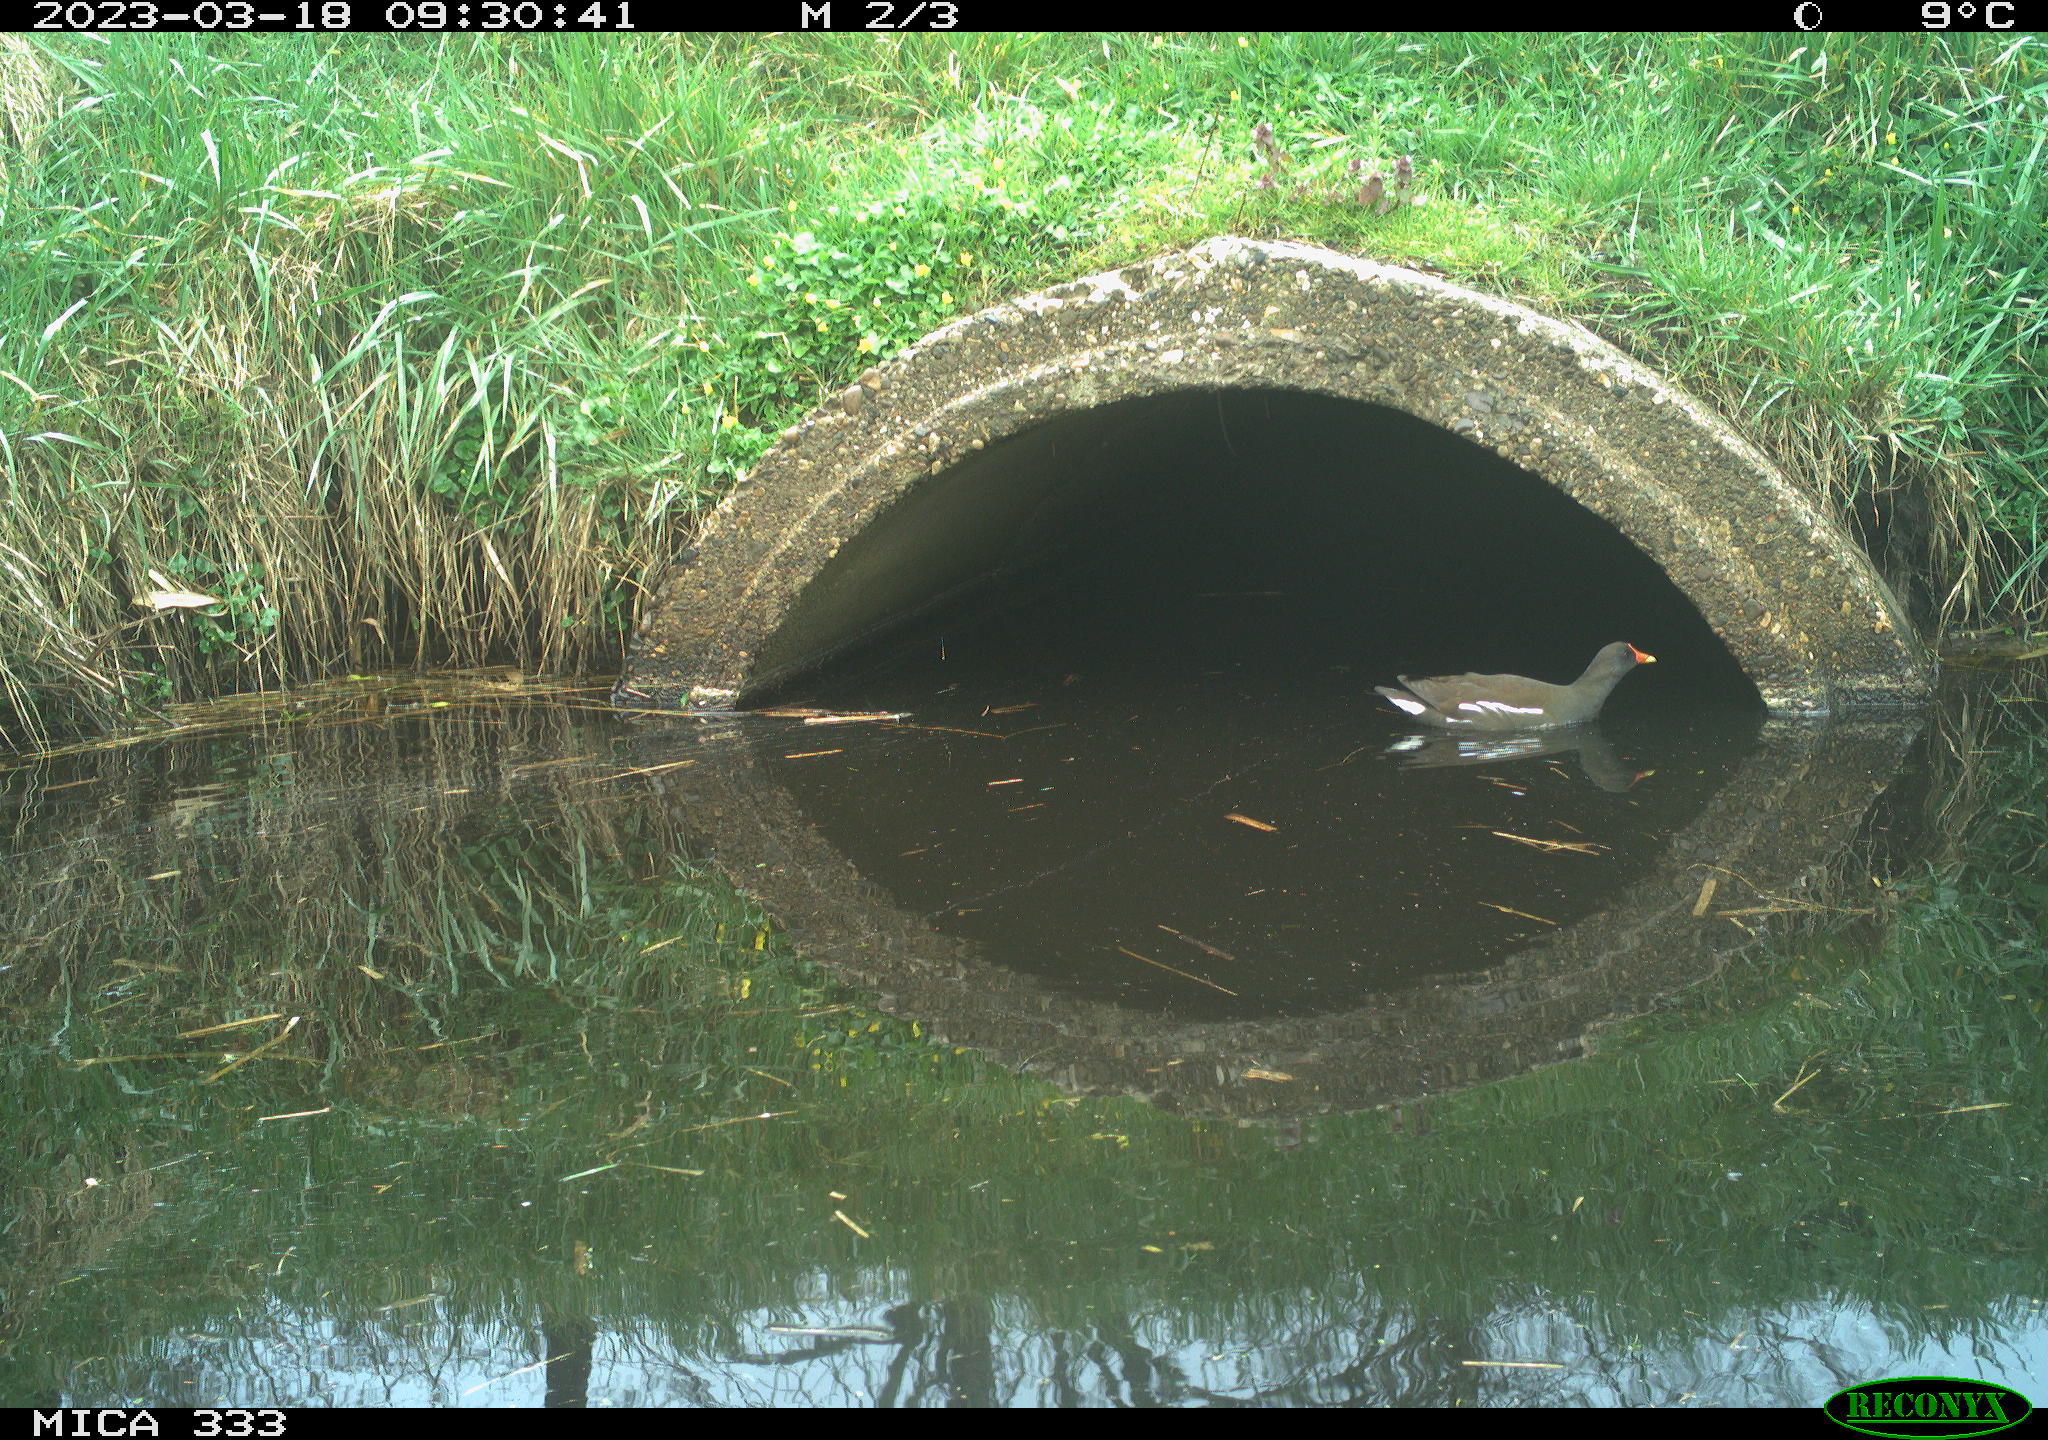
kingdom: Animalia
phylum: Chordata
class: Aves
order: Gruiformes
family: Rallidae
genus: Gallinula
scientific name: Gallinula chloropus
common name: Common moorhen
